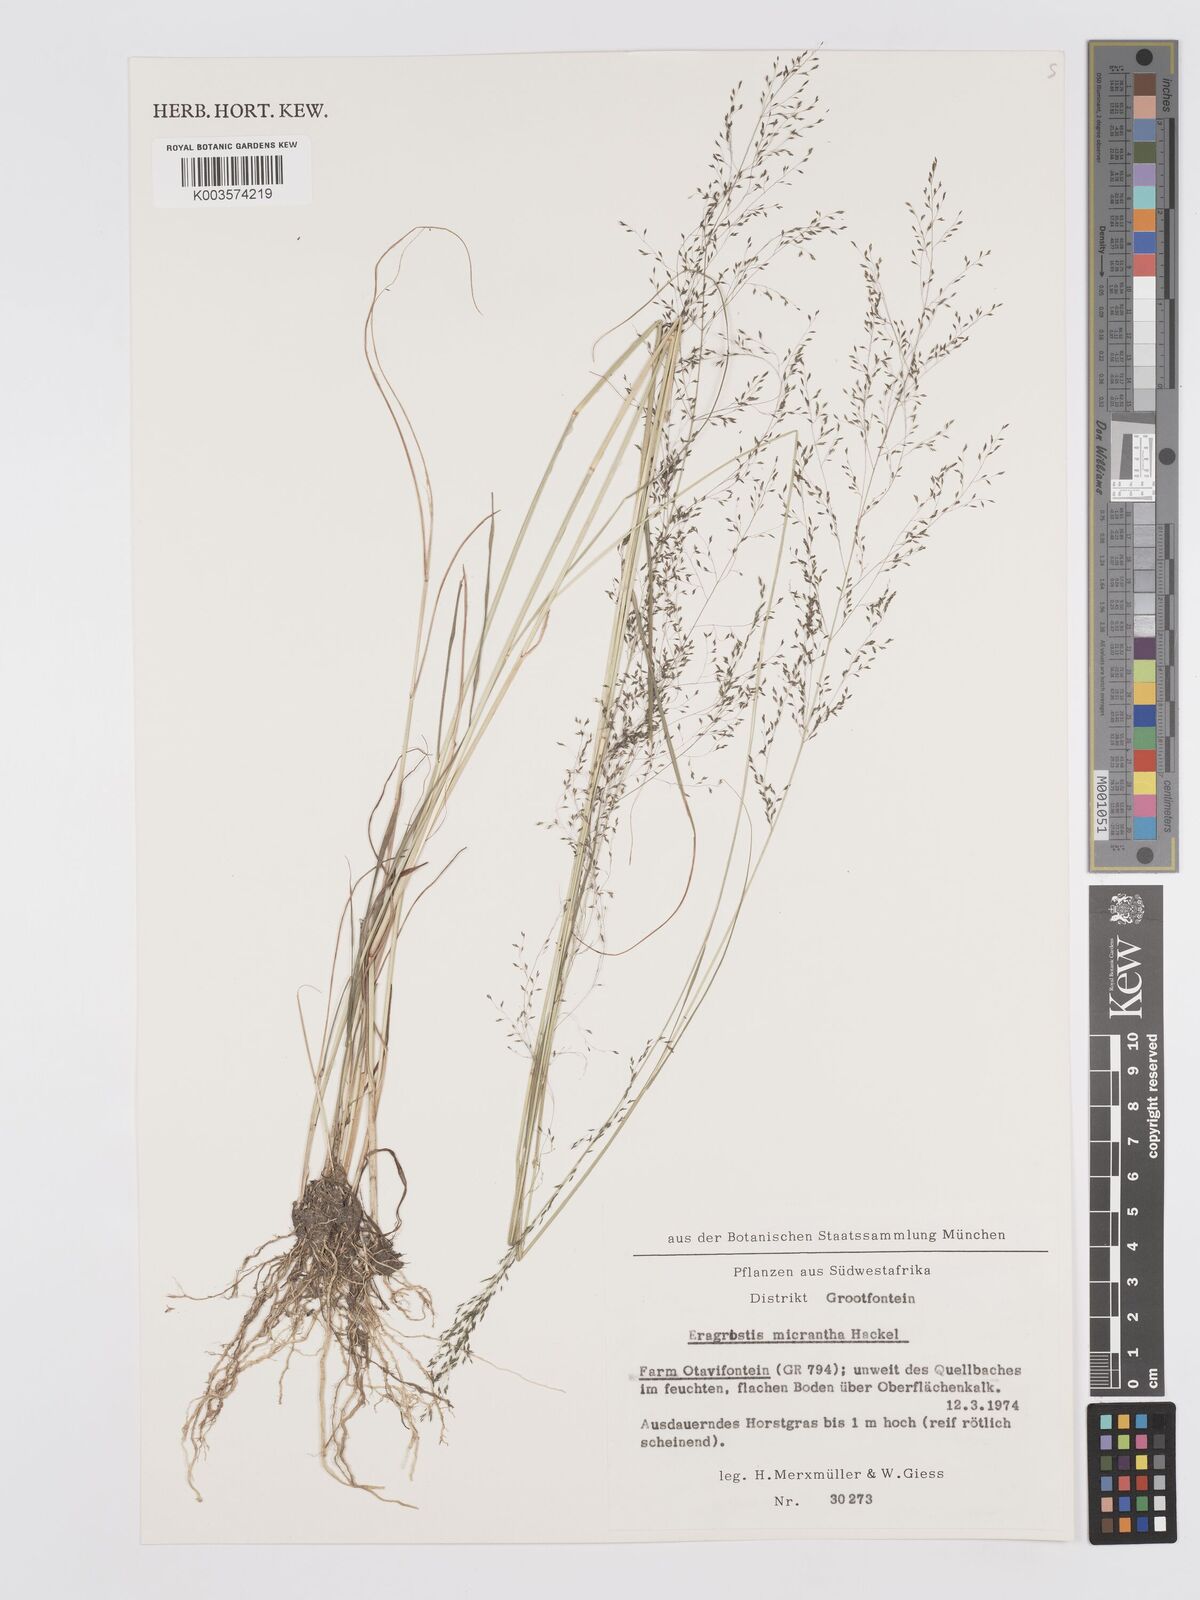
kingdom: Plantae
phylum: Tracheophyta
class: Liliopsida
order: Poales
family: Poaceae
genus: Eragrostis
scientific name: Eragrostis micrantha
